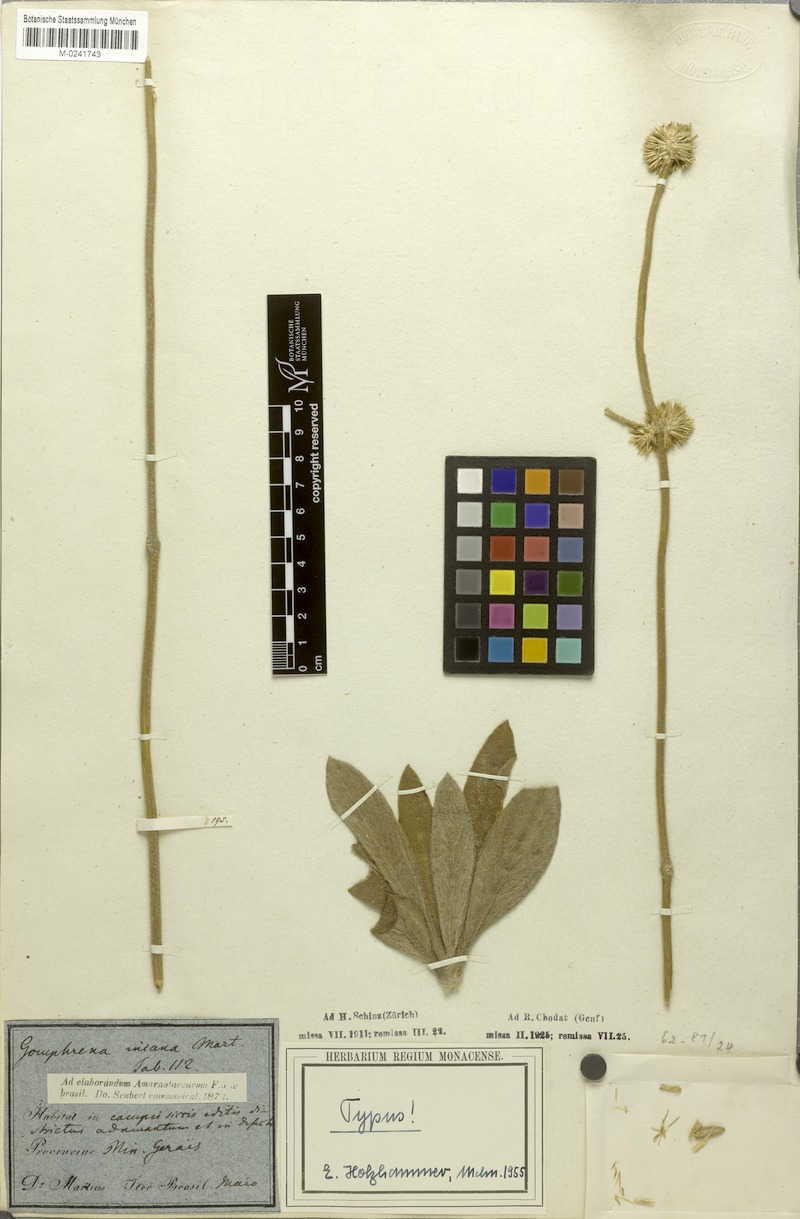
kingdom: Plantae
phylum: Tracheophyta
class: Magnoliopsida
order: Caryophyllales
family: Amaranthaceae
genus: Gomphrena
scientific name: Gomphrena incana
